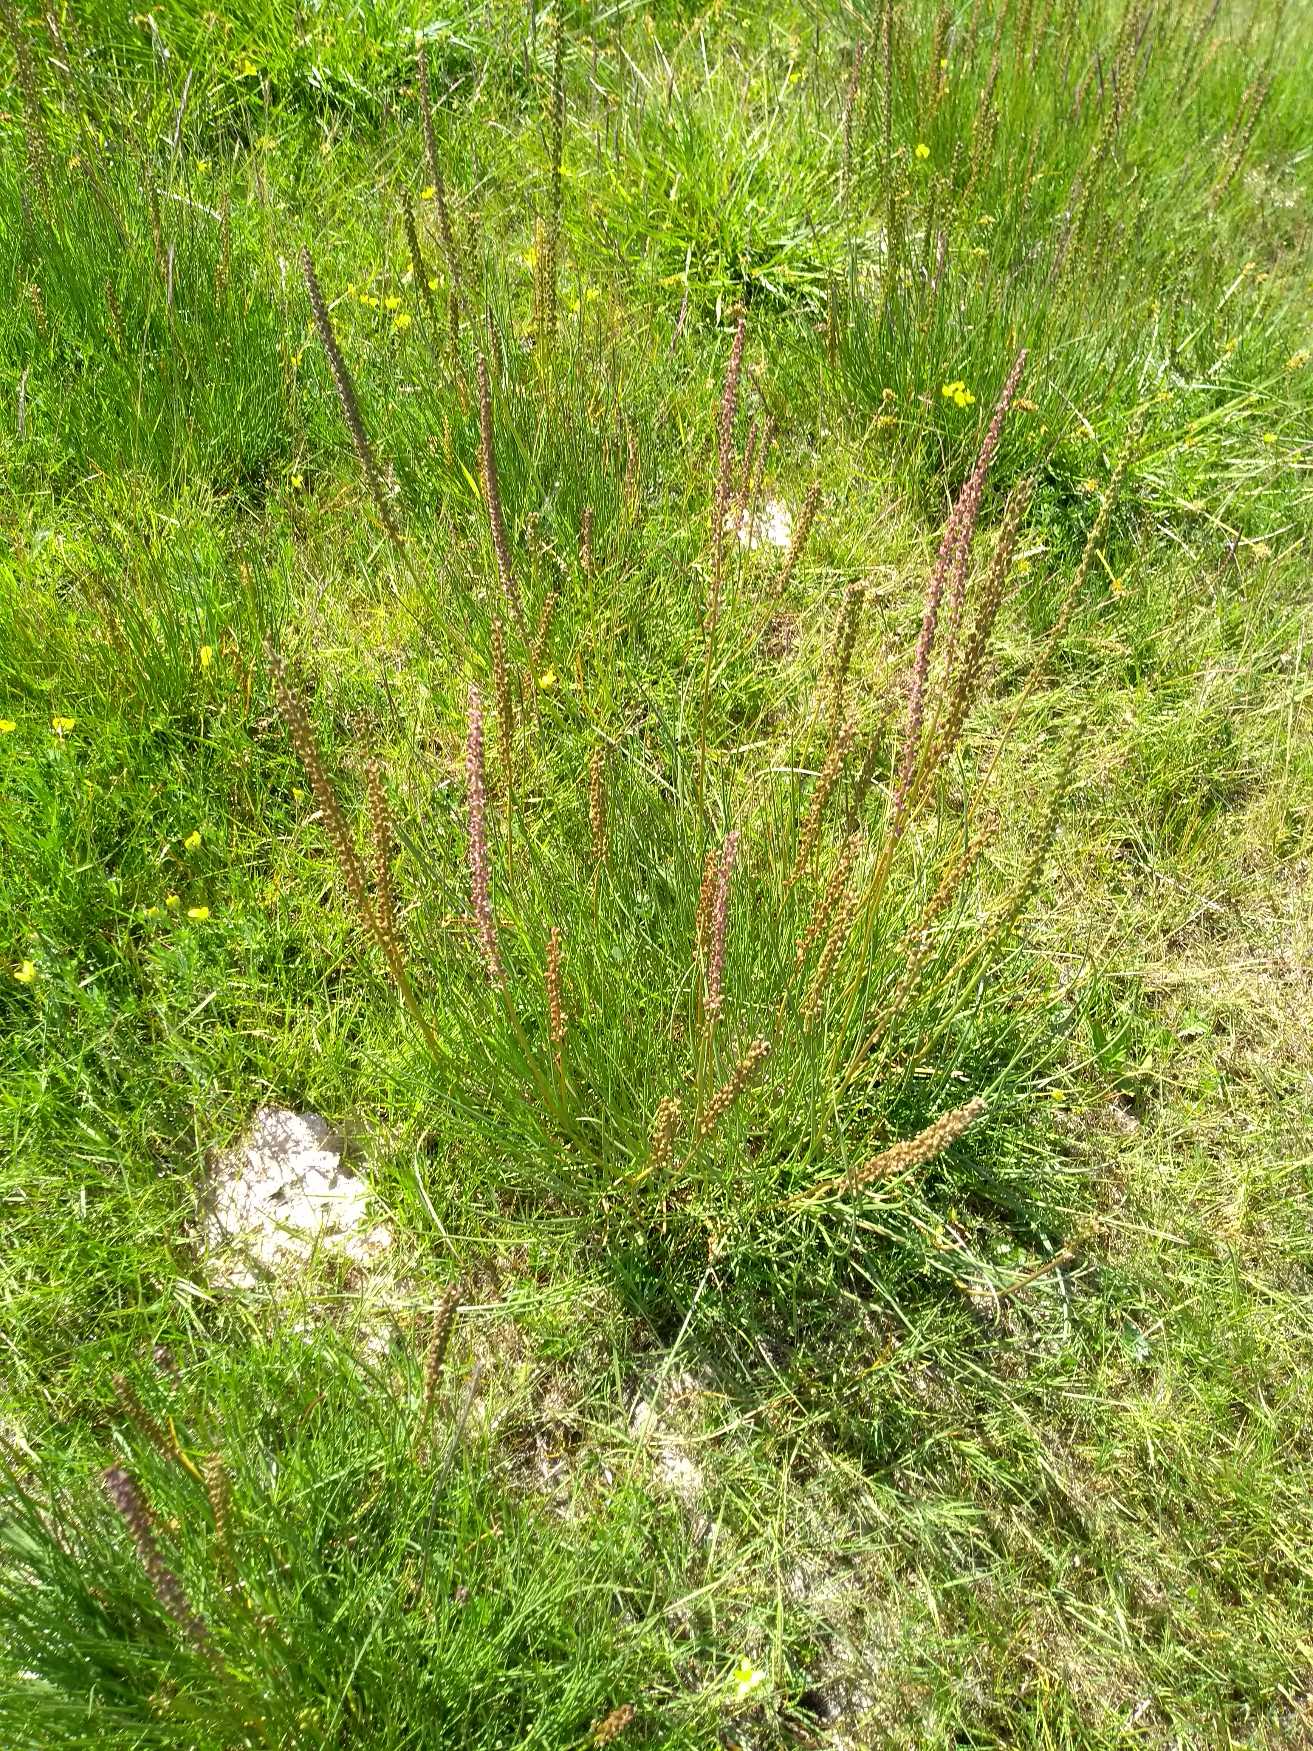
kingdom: Plantae
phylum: Tracheophyta
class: Liliopsida
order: Alismatales
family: Juncaginaceae
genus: Triglochin
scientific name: Triglochin maritima
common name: Strand-trehage
